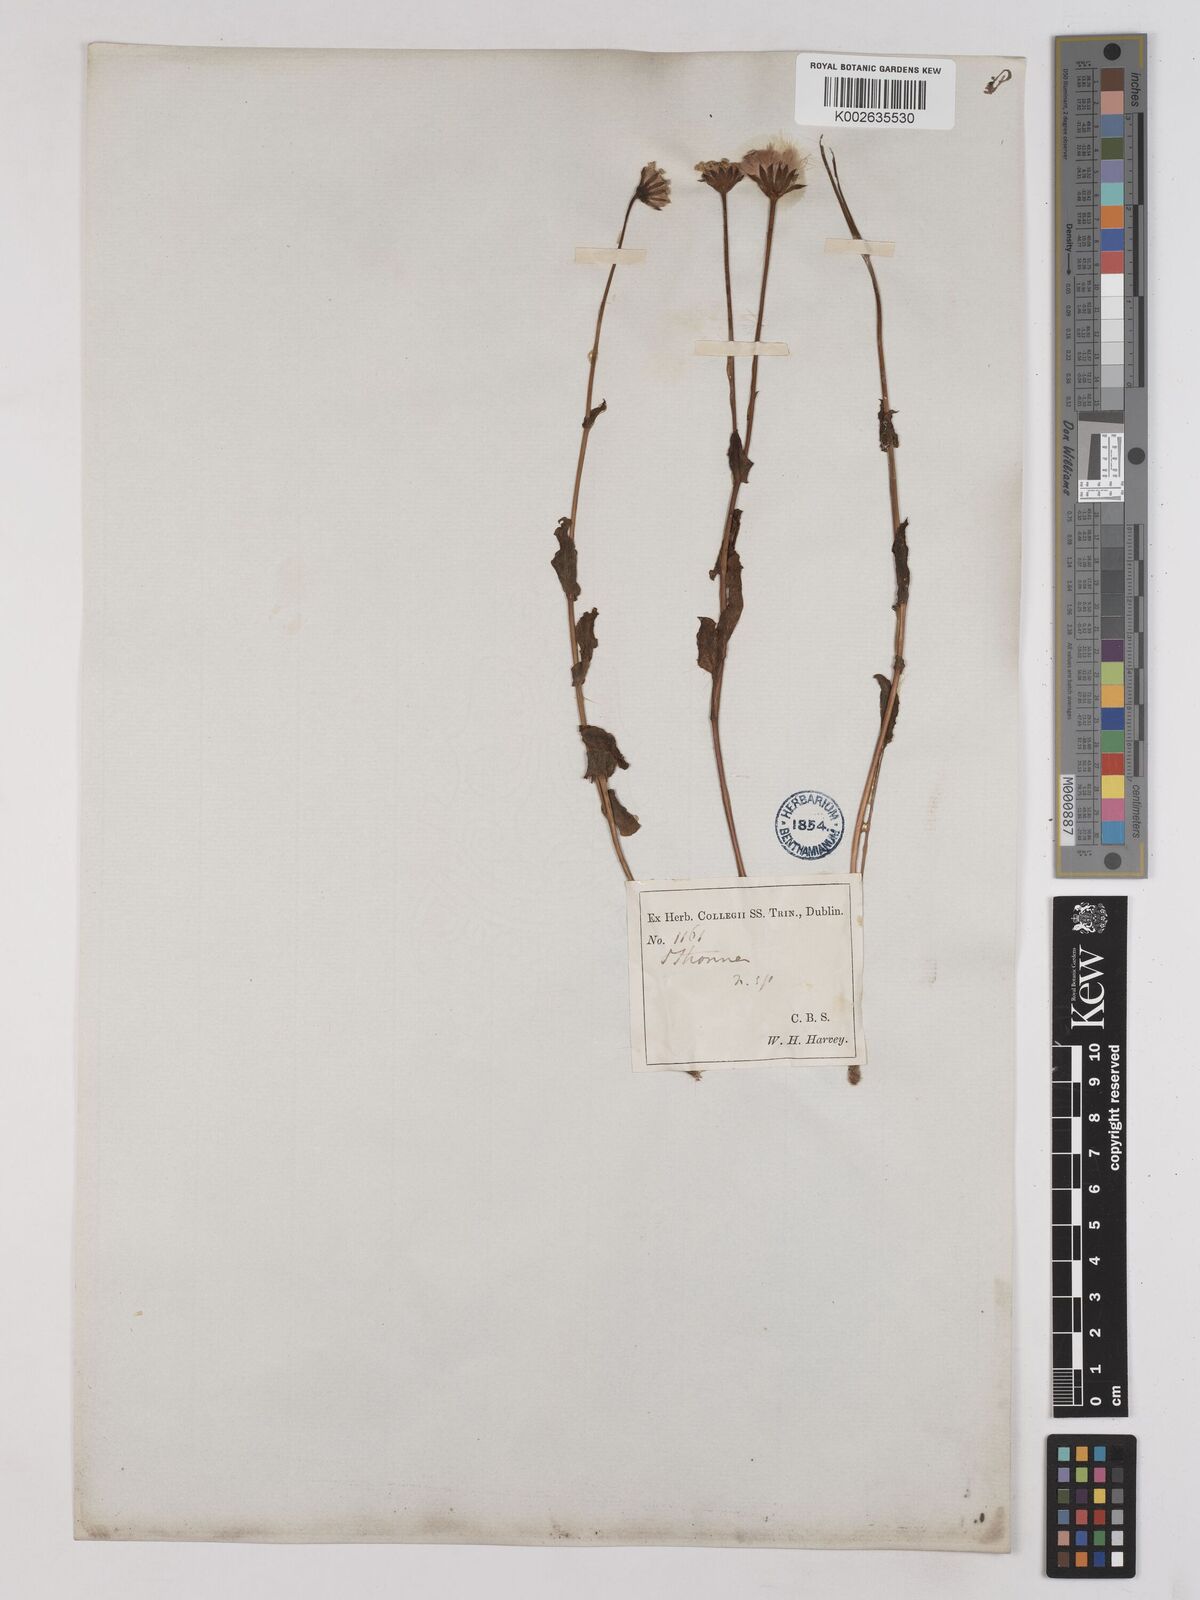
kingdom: Plantae
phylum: Tracheophyta
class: Magnoliopsida
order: Asterales
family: Asteraceae
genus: Othonna
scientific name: Othonna rufibarbis
